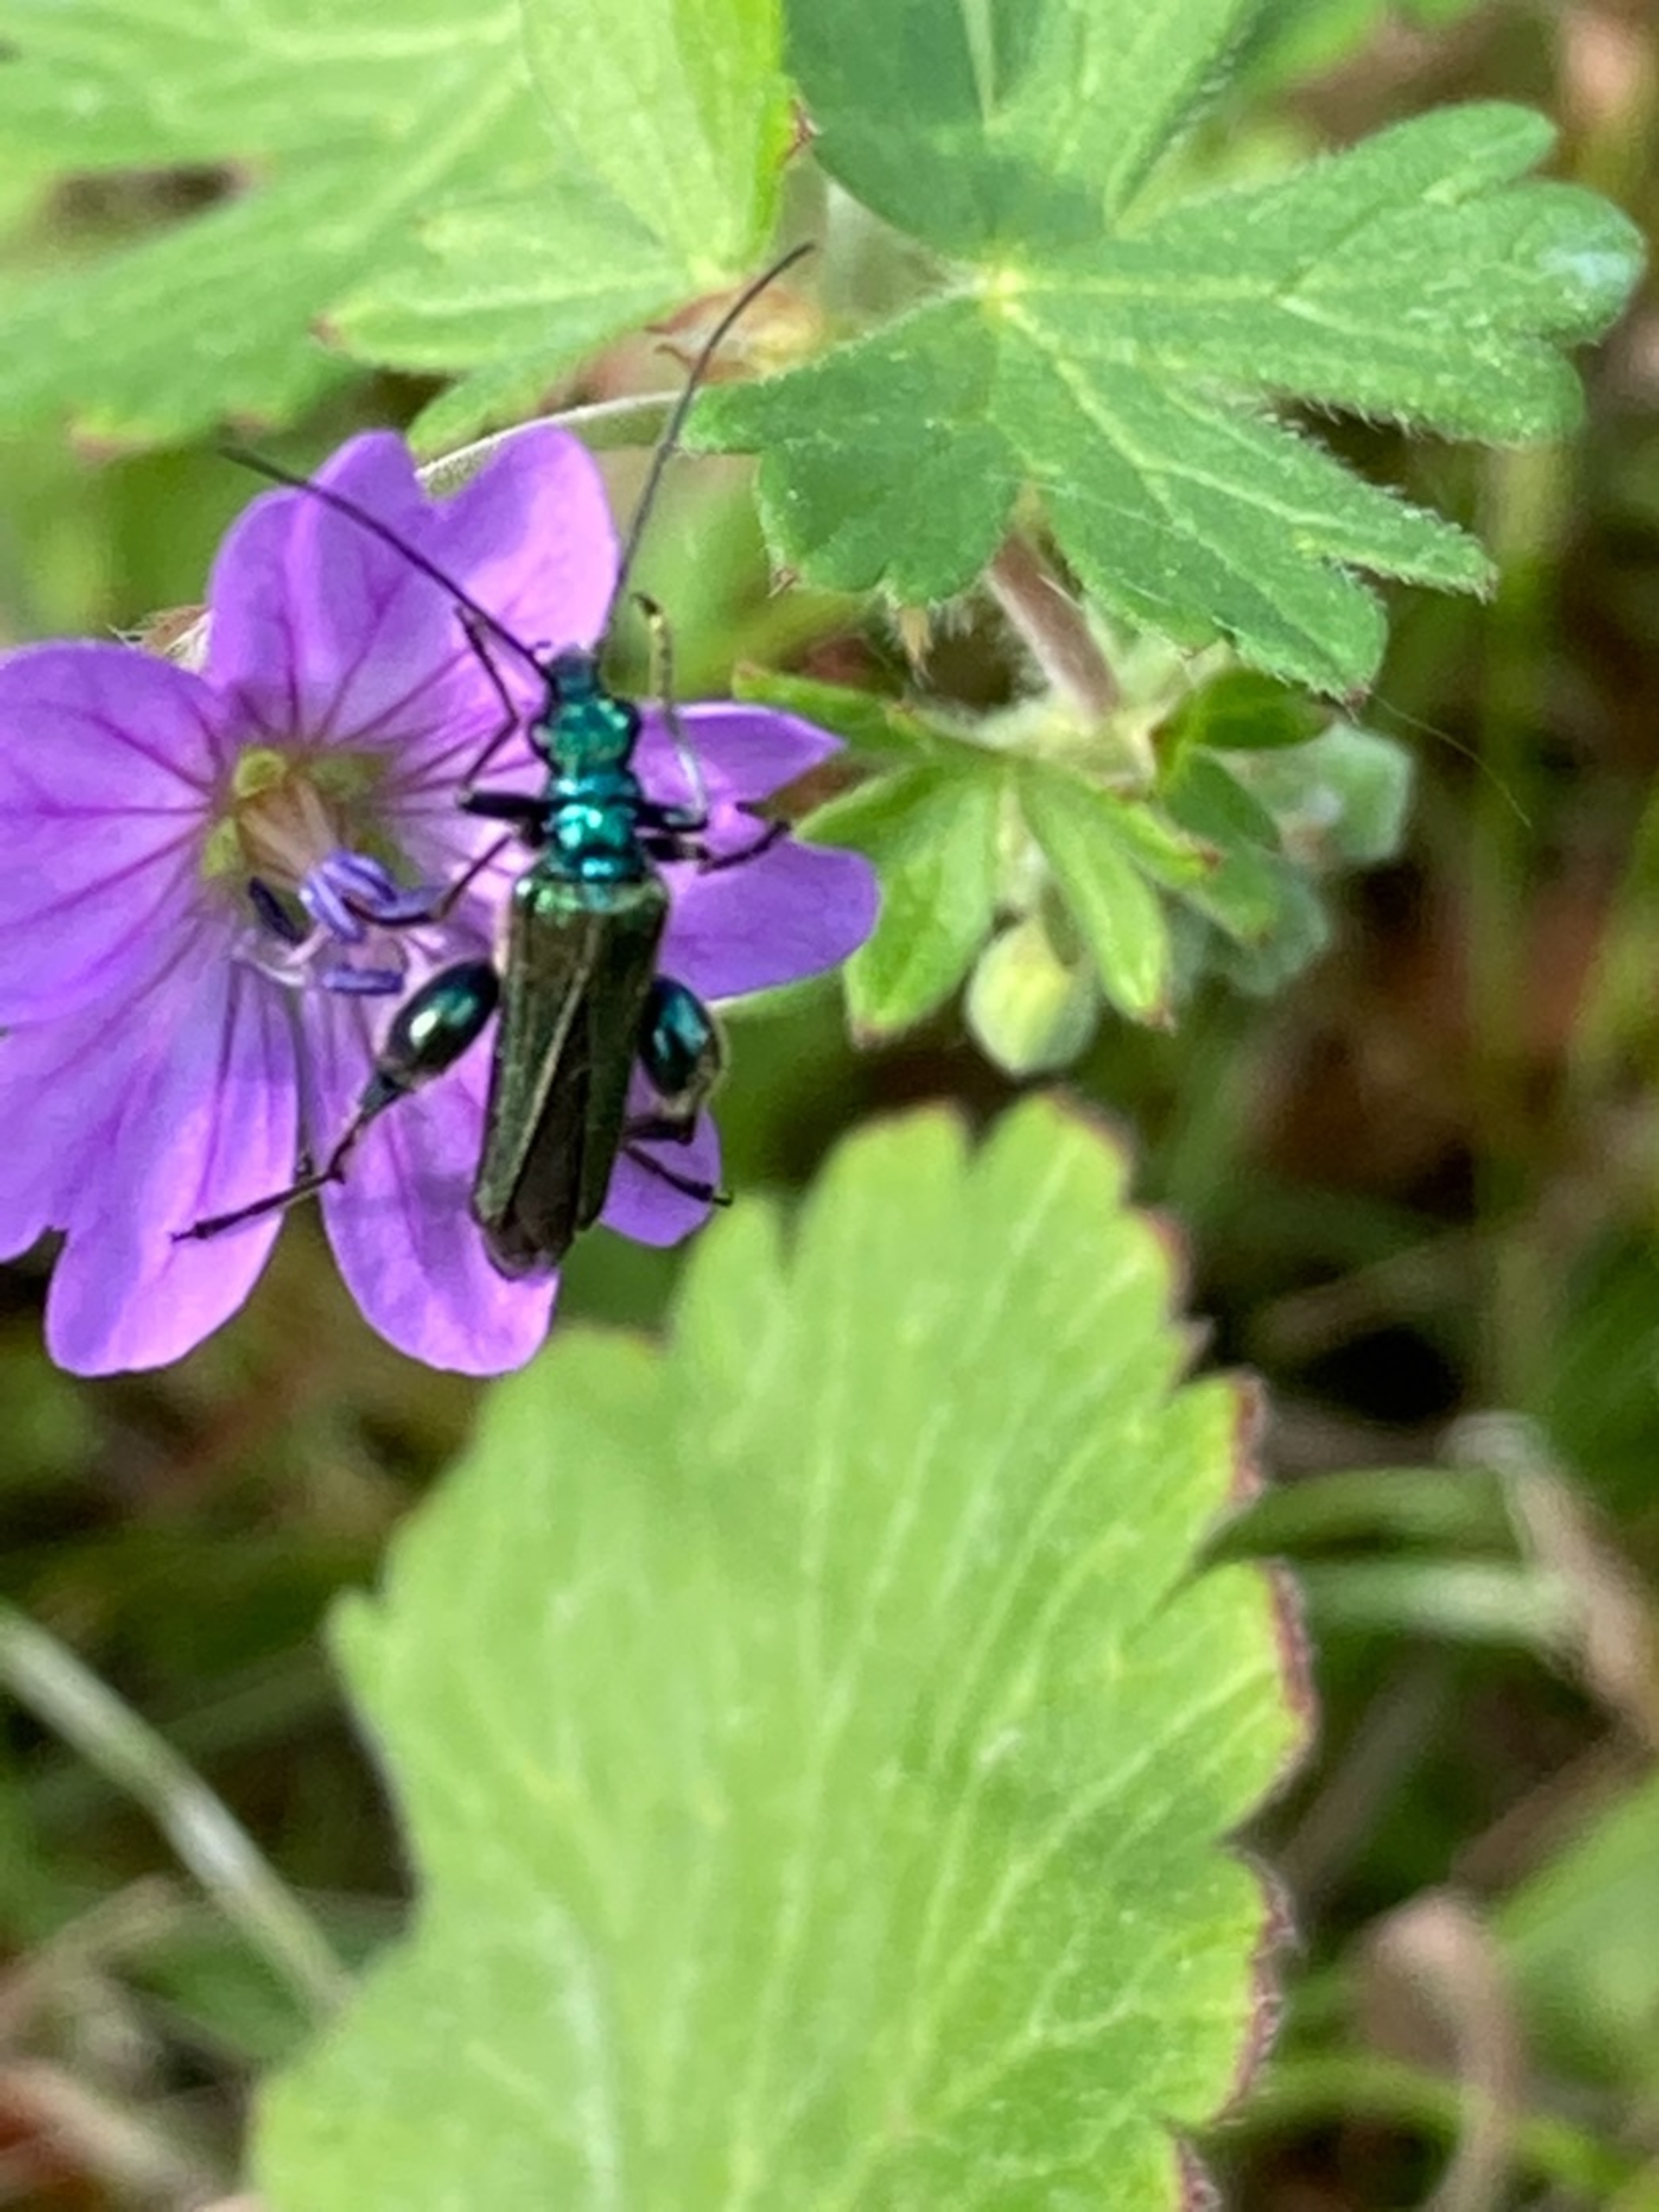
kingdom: Animalia
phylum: Arthropoda
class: Insecta
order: Coleoptera
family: Oedemeridae
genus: Oedemera
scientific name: Oedemera nobilis
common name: Tyklårssolbille
